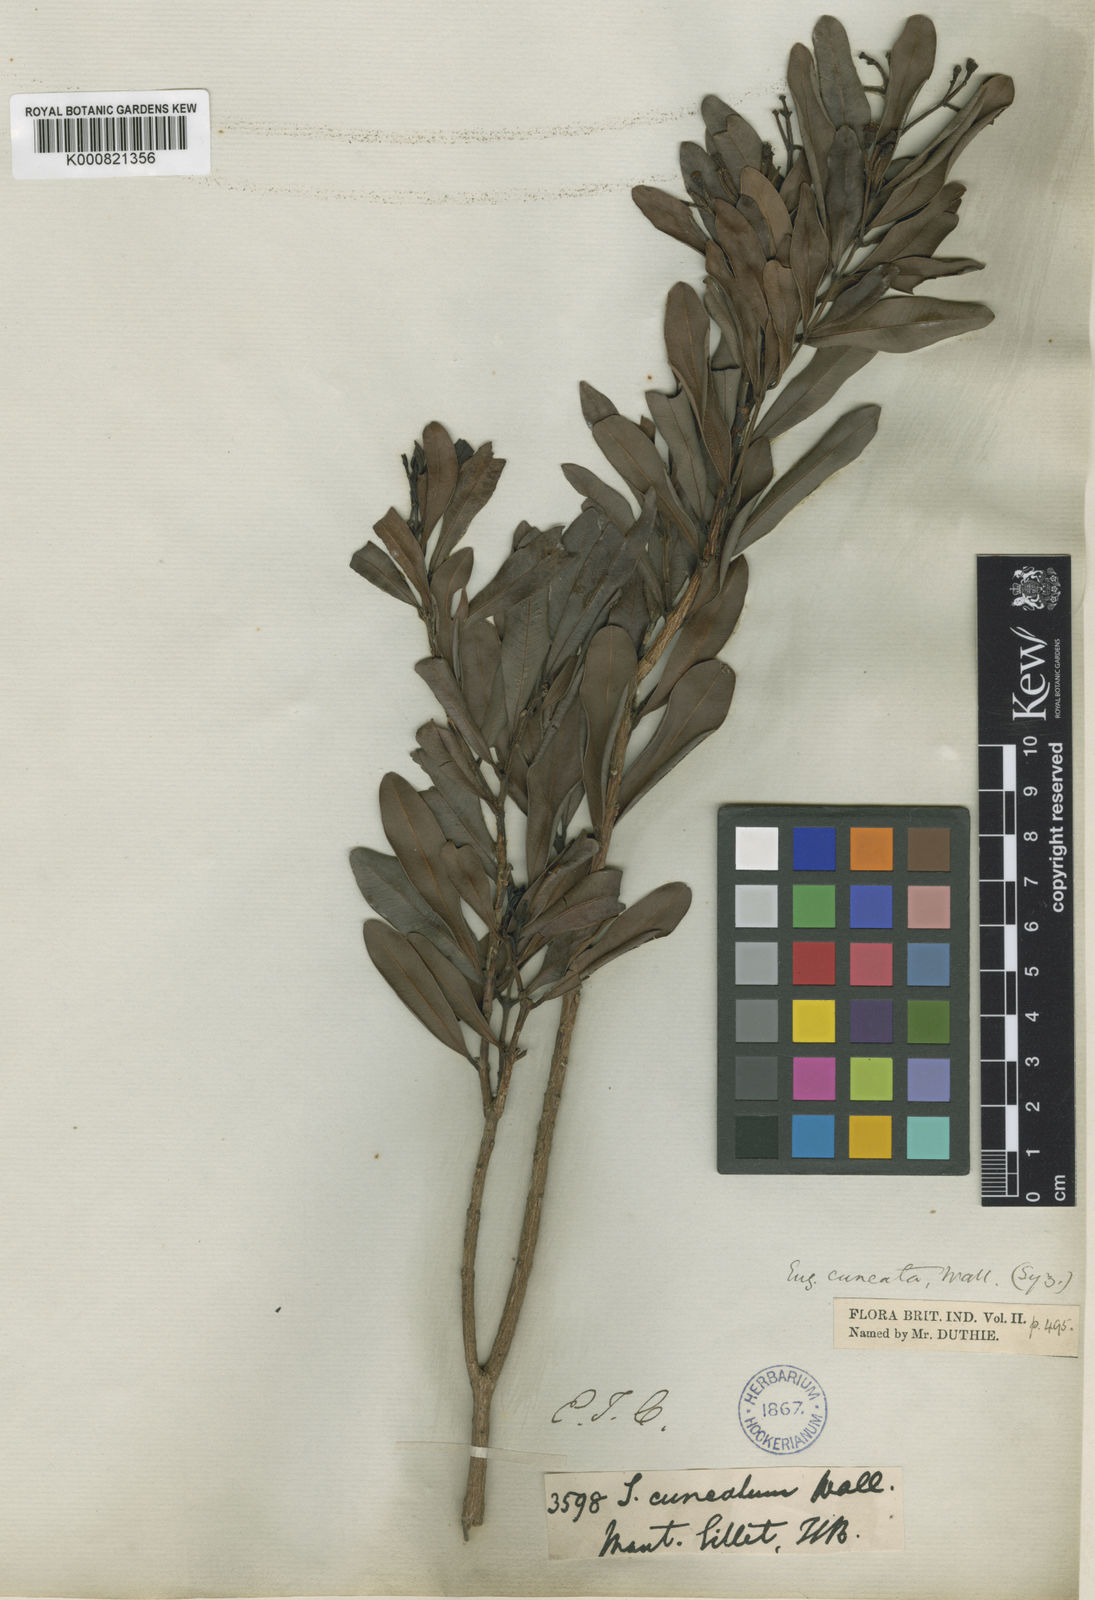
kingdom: Plantae
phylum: Tracheophyta
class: Magnoliopsida
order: Myrtales
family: Myrtaceae
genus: Syzygium
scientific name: Syzygium
